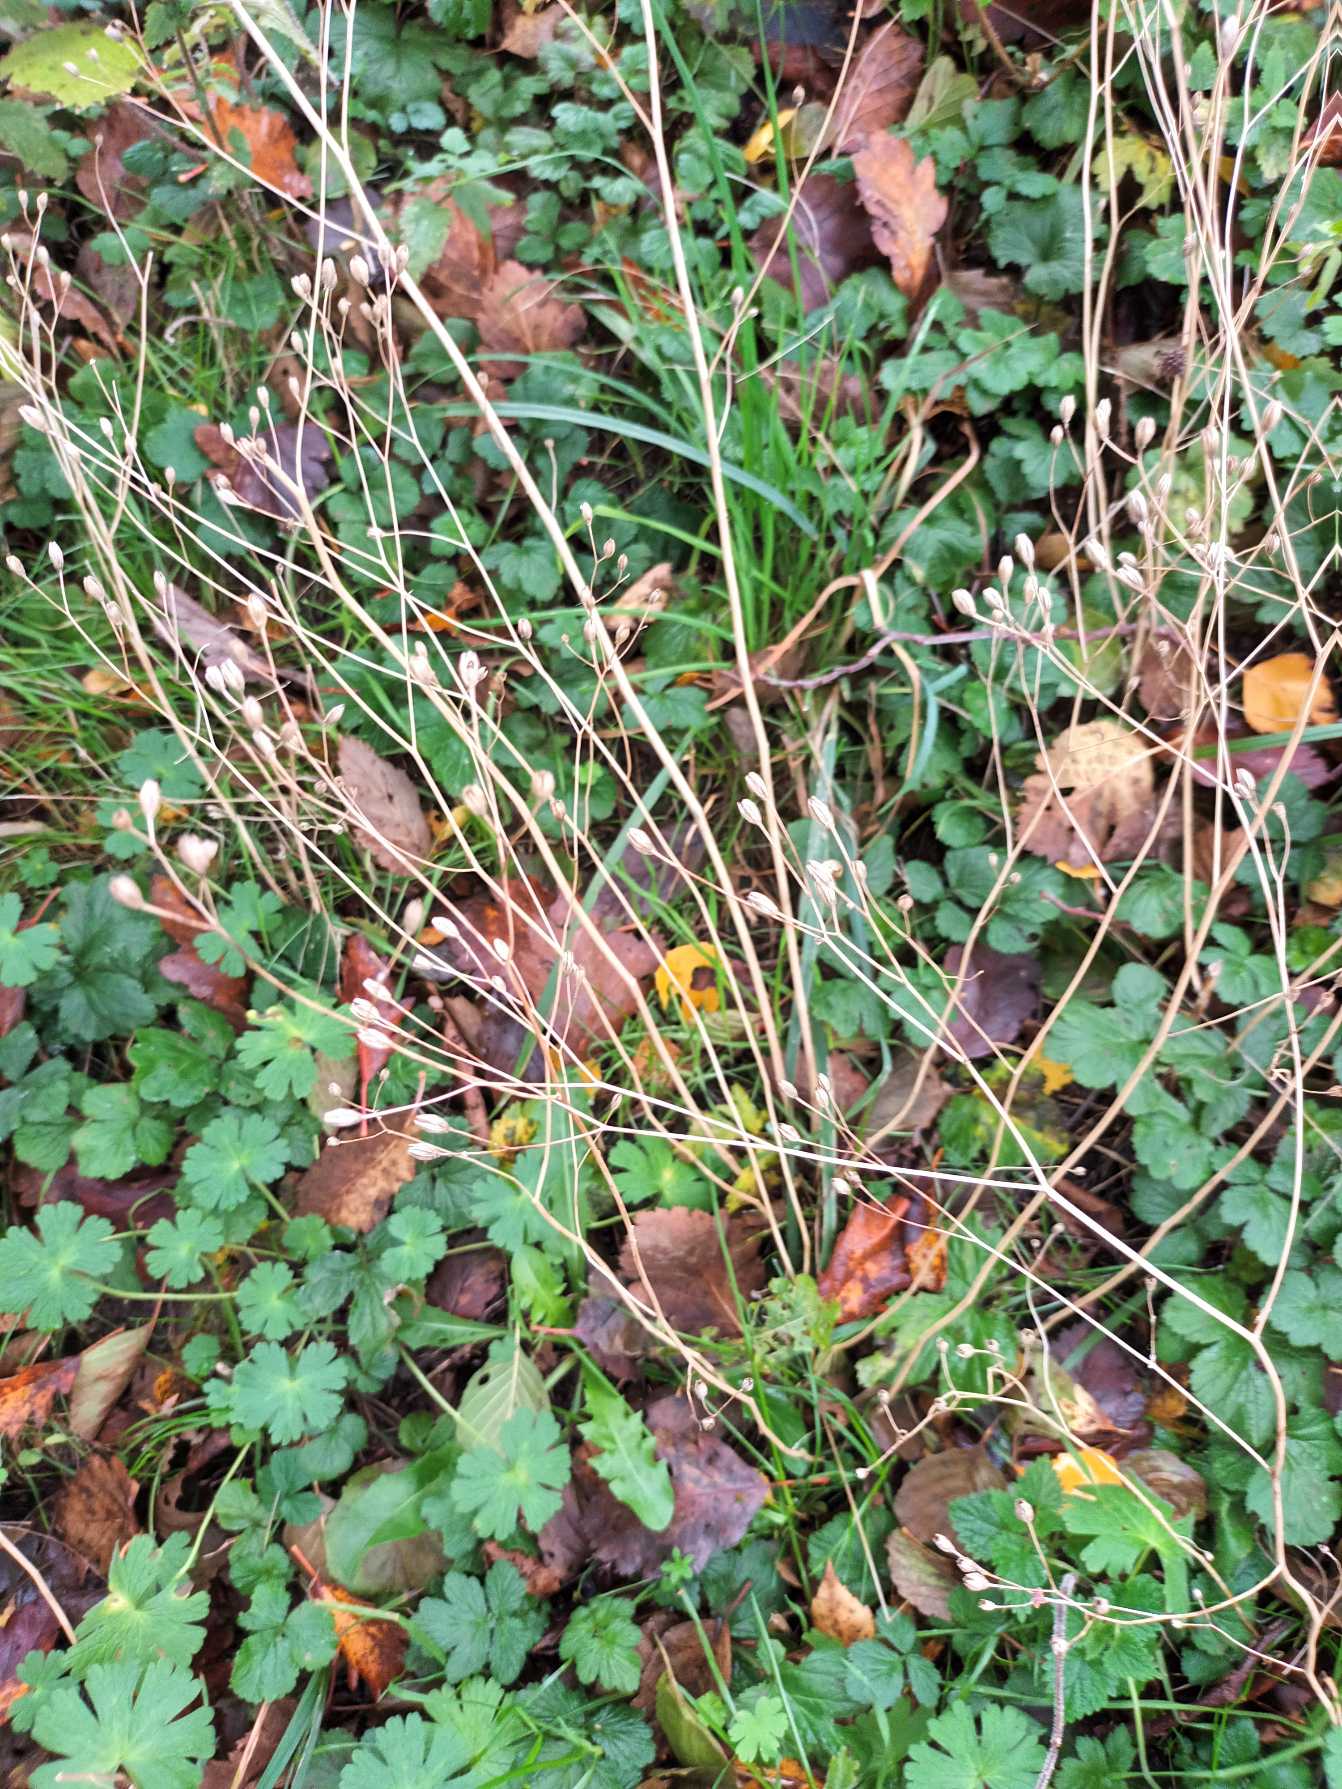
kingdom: Plantae
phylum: Tracheophyta
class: Magnoliopsida
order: Asterales
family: Asteraceae
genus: Lapsana
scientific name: Lapsana communis
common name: Haremad
